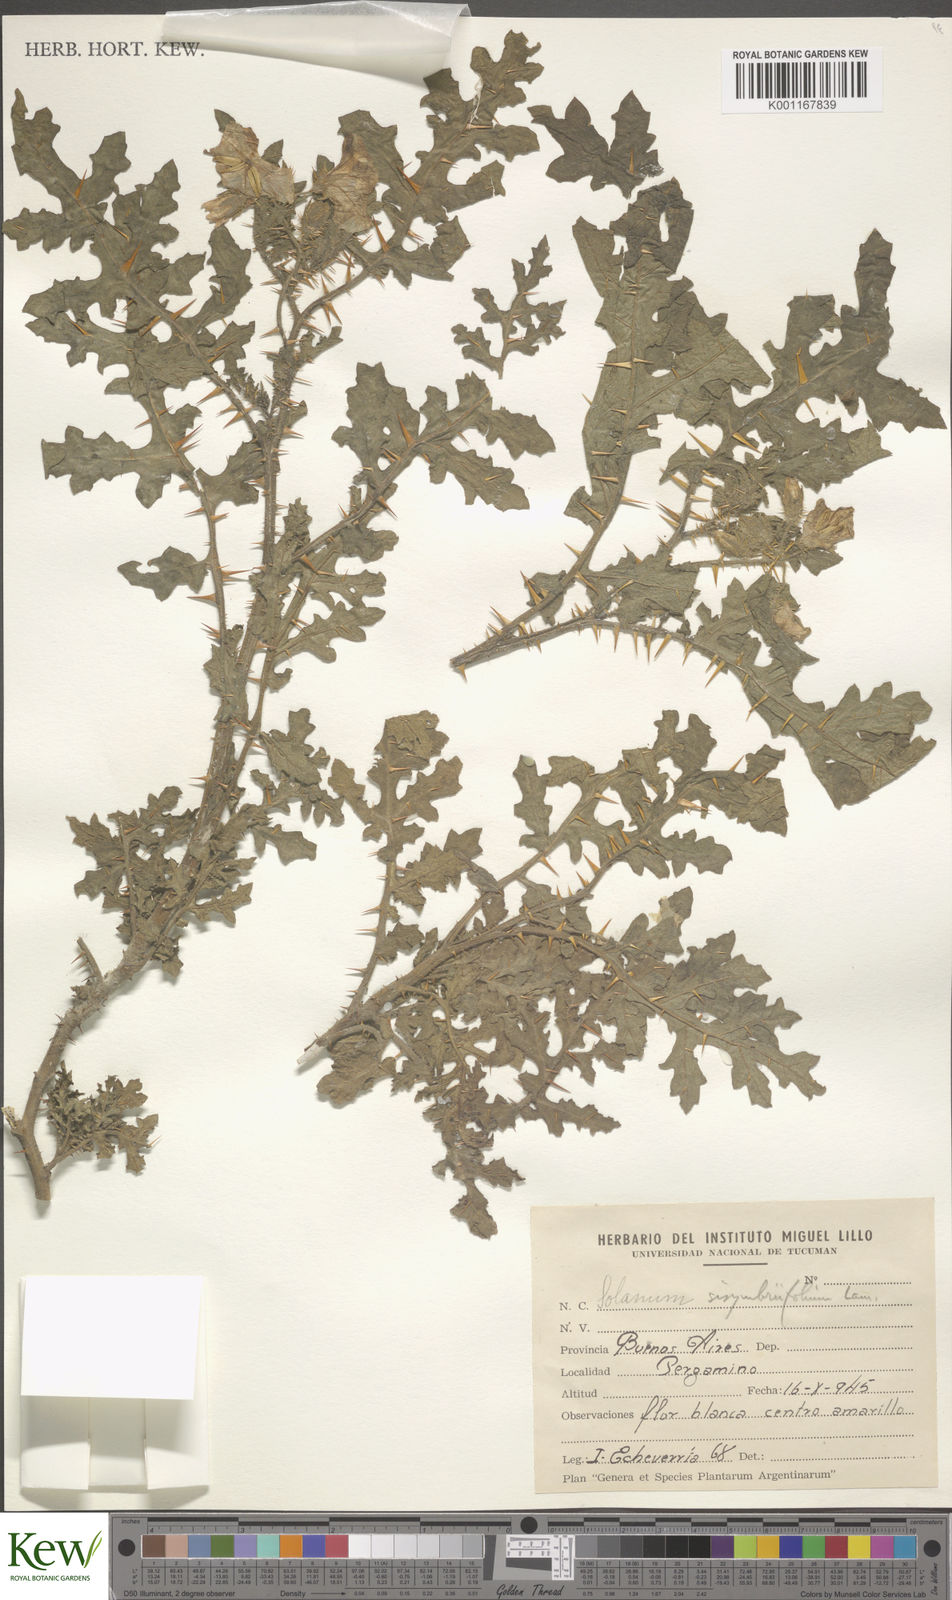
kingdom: Plantae
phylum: Tracheophyta
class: Magnoliopsida
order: Solanales
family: Solanaceae
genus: Solanum
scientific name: Solanum sisymbriifolium
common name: Red buffalo-bur
